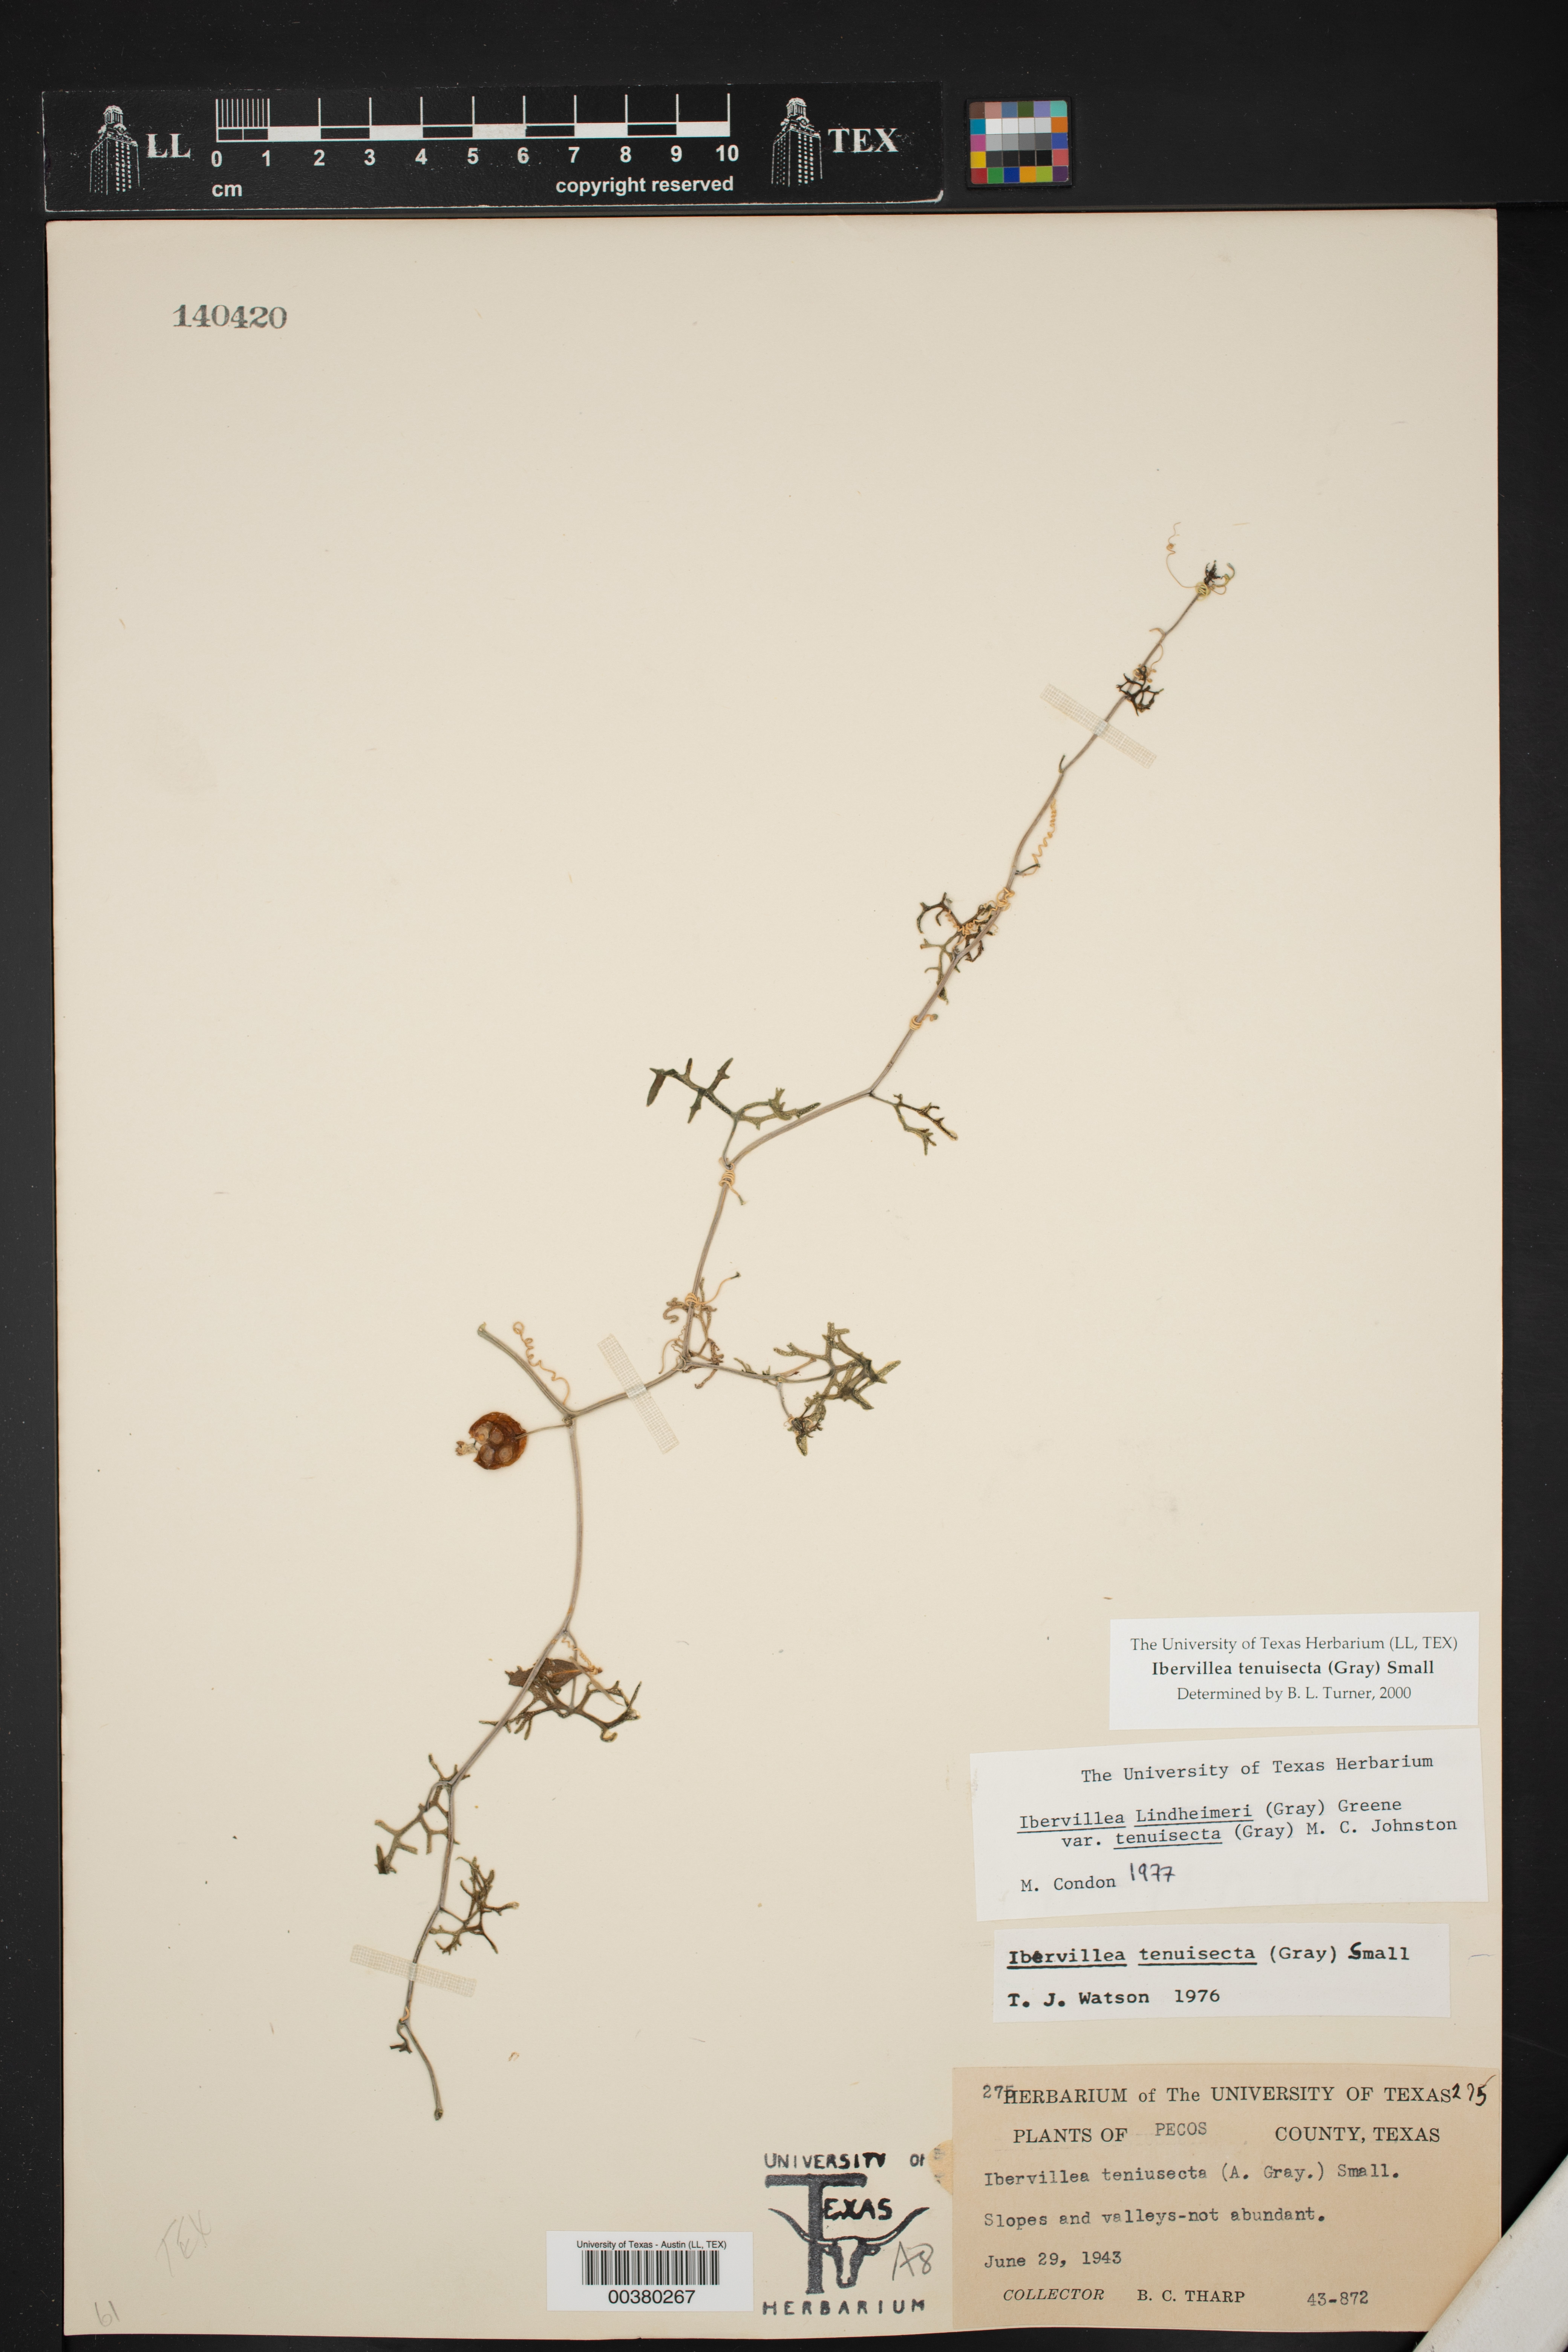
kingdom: Plantae
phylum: Tracheophyta
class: Magnoliopsida
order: Cucurbitales
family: Cucurbitaceae
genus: Ibervillea
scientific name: Ibervillea tenuisecta
